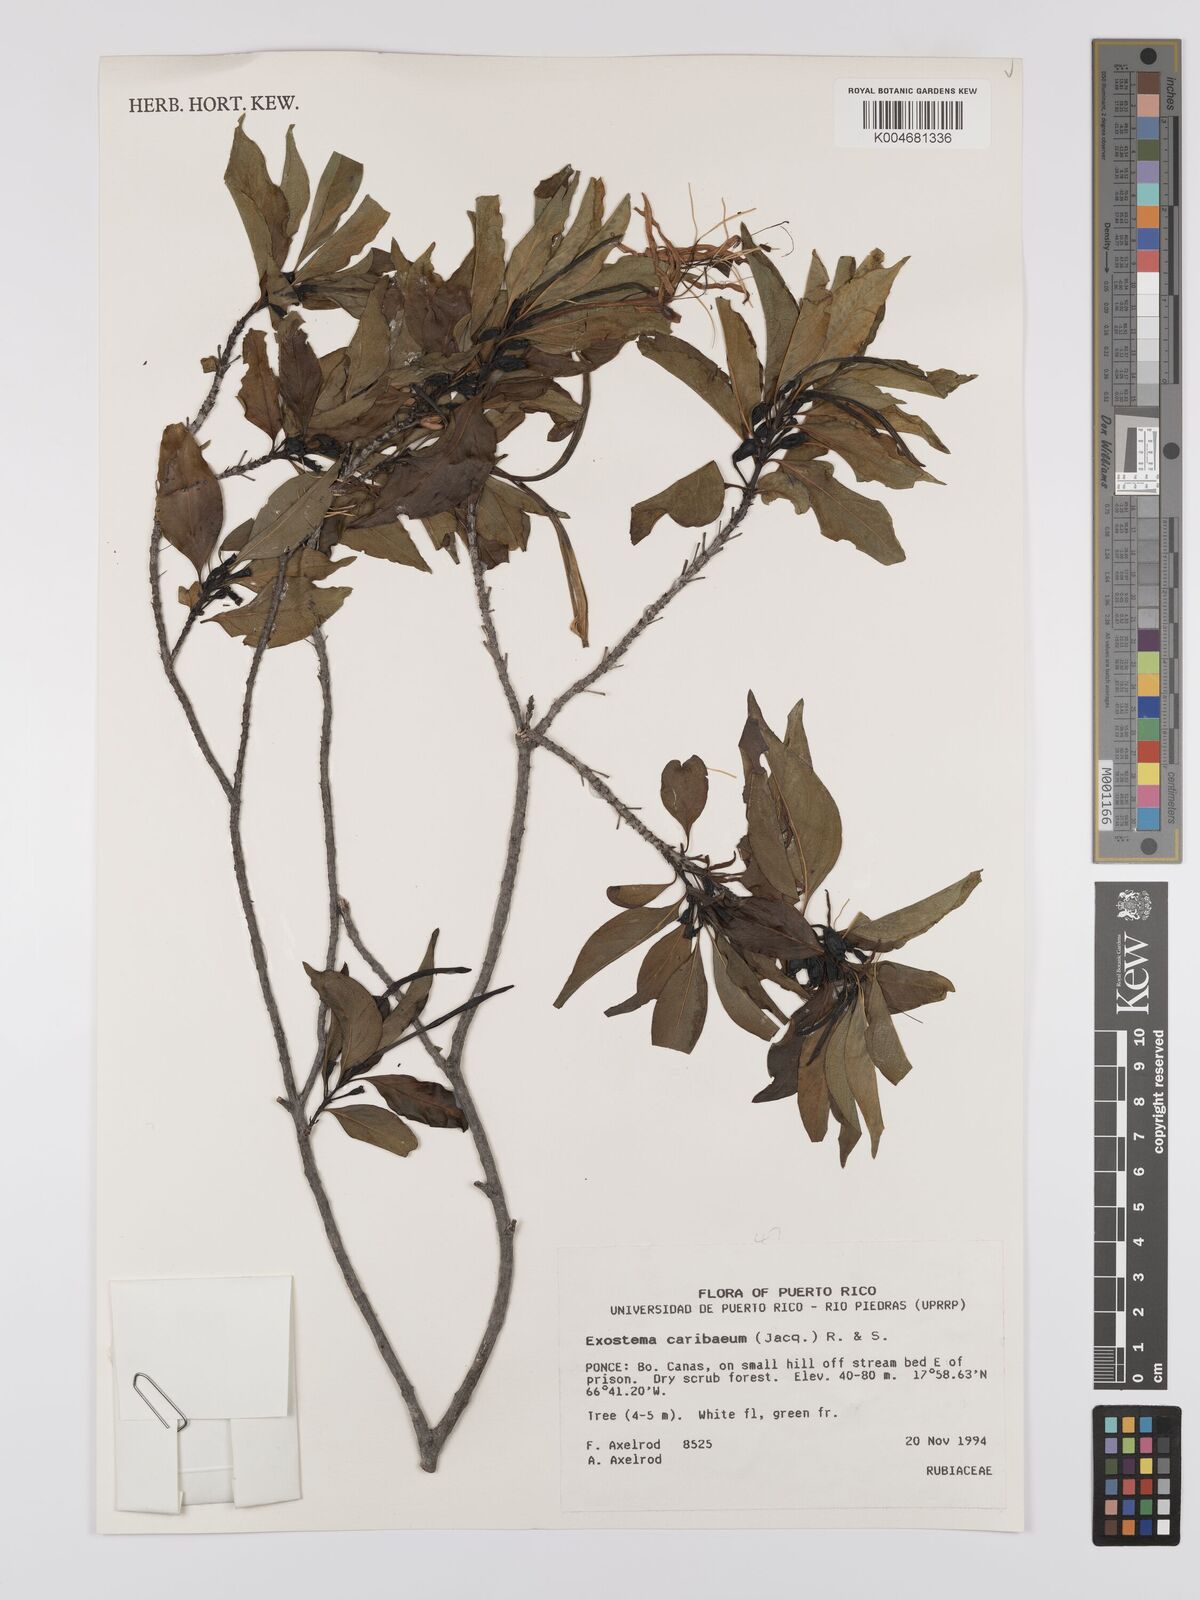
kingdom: Plantae
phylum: Tracheophyta
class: Magnoliopsida
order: Gentianales
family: Rubiaceae
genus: Exostema
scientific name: Exostema caribaeum
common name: Princewood
